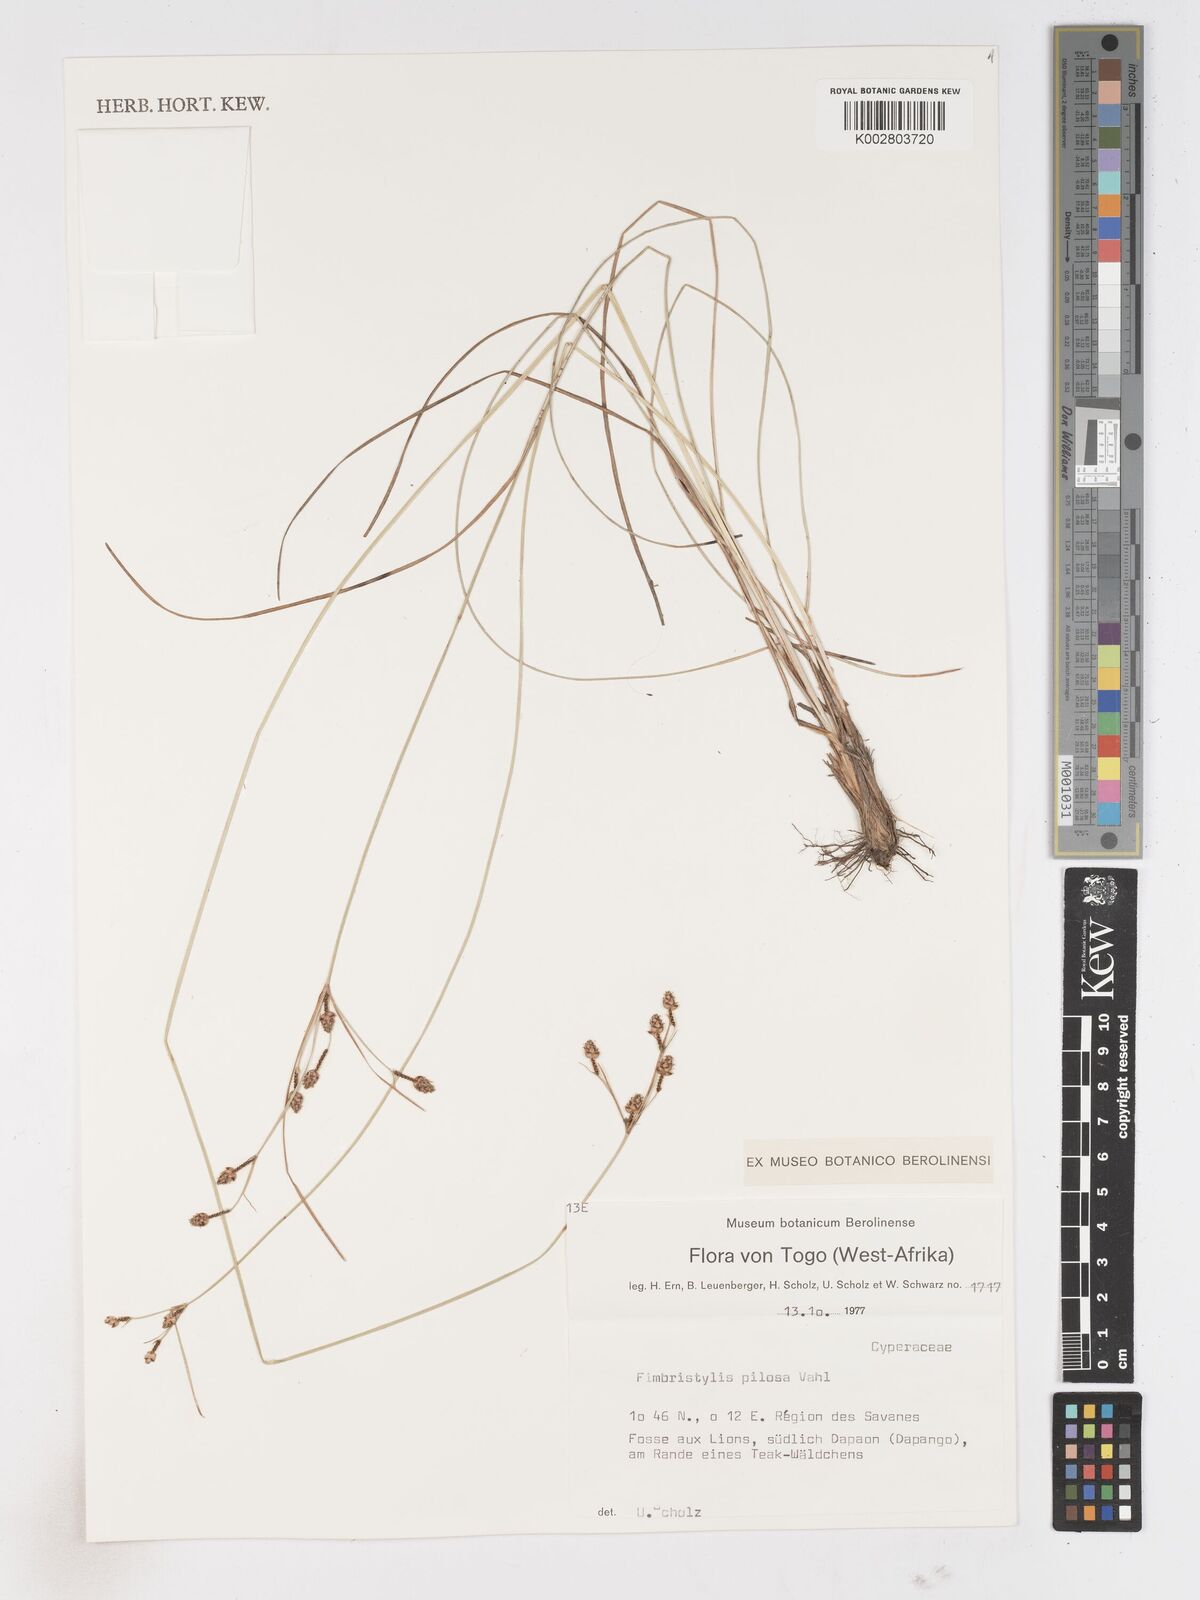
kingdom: Plantae
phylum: Tracheophyta
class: Liliopsida
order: Poales
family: Cyperaceae
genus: Bulbostylis
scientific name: Bulbostylis pilosa
